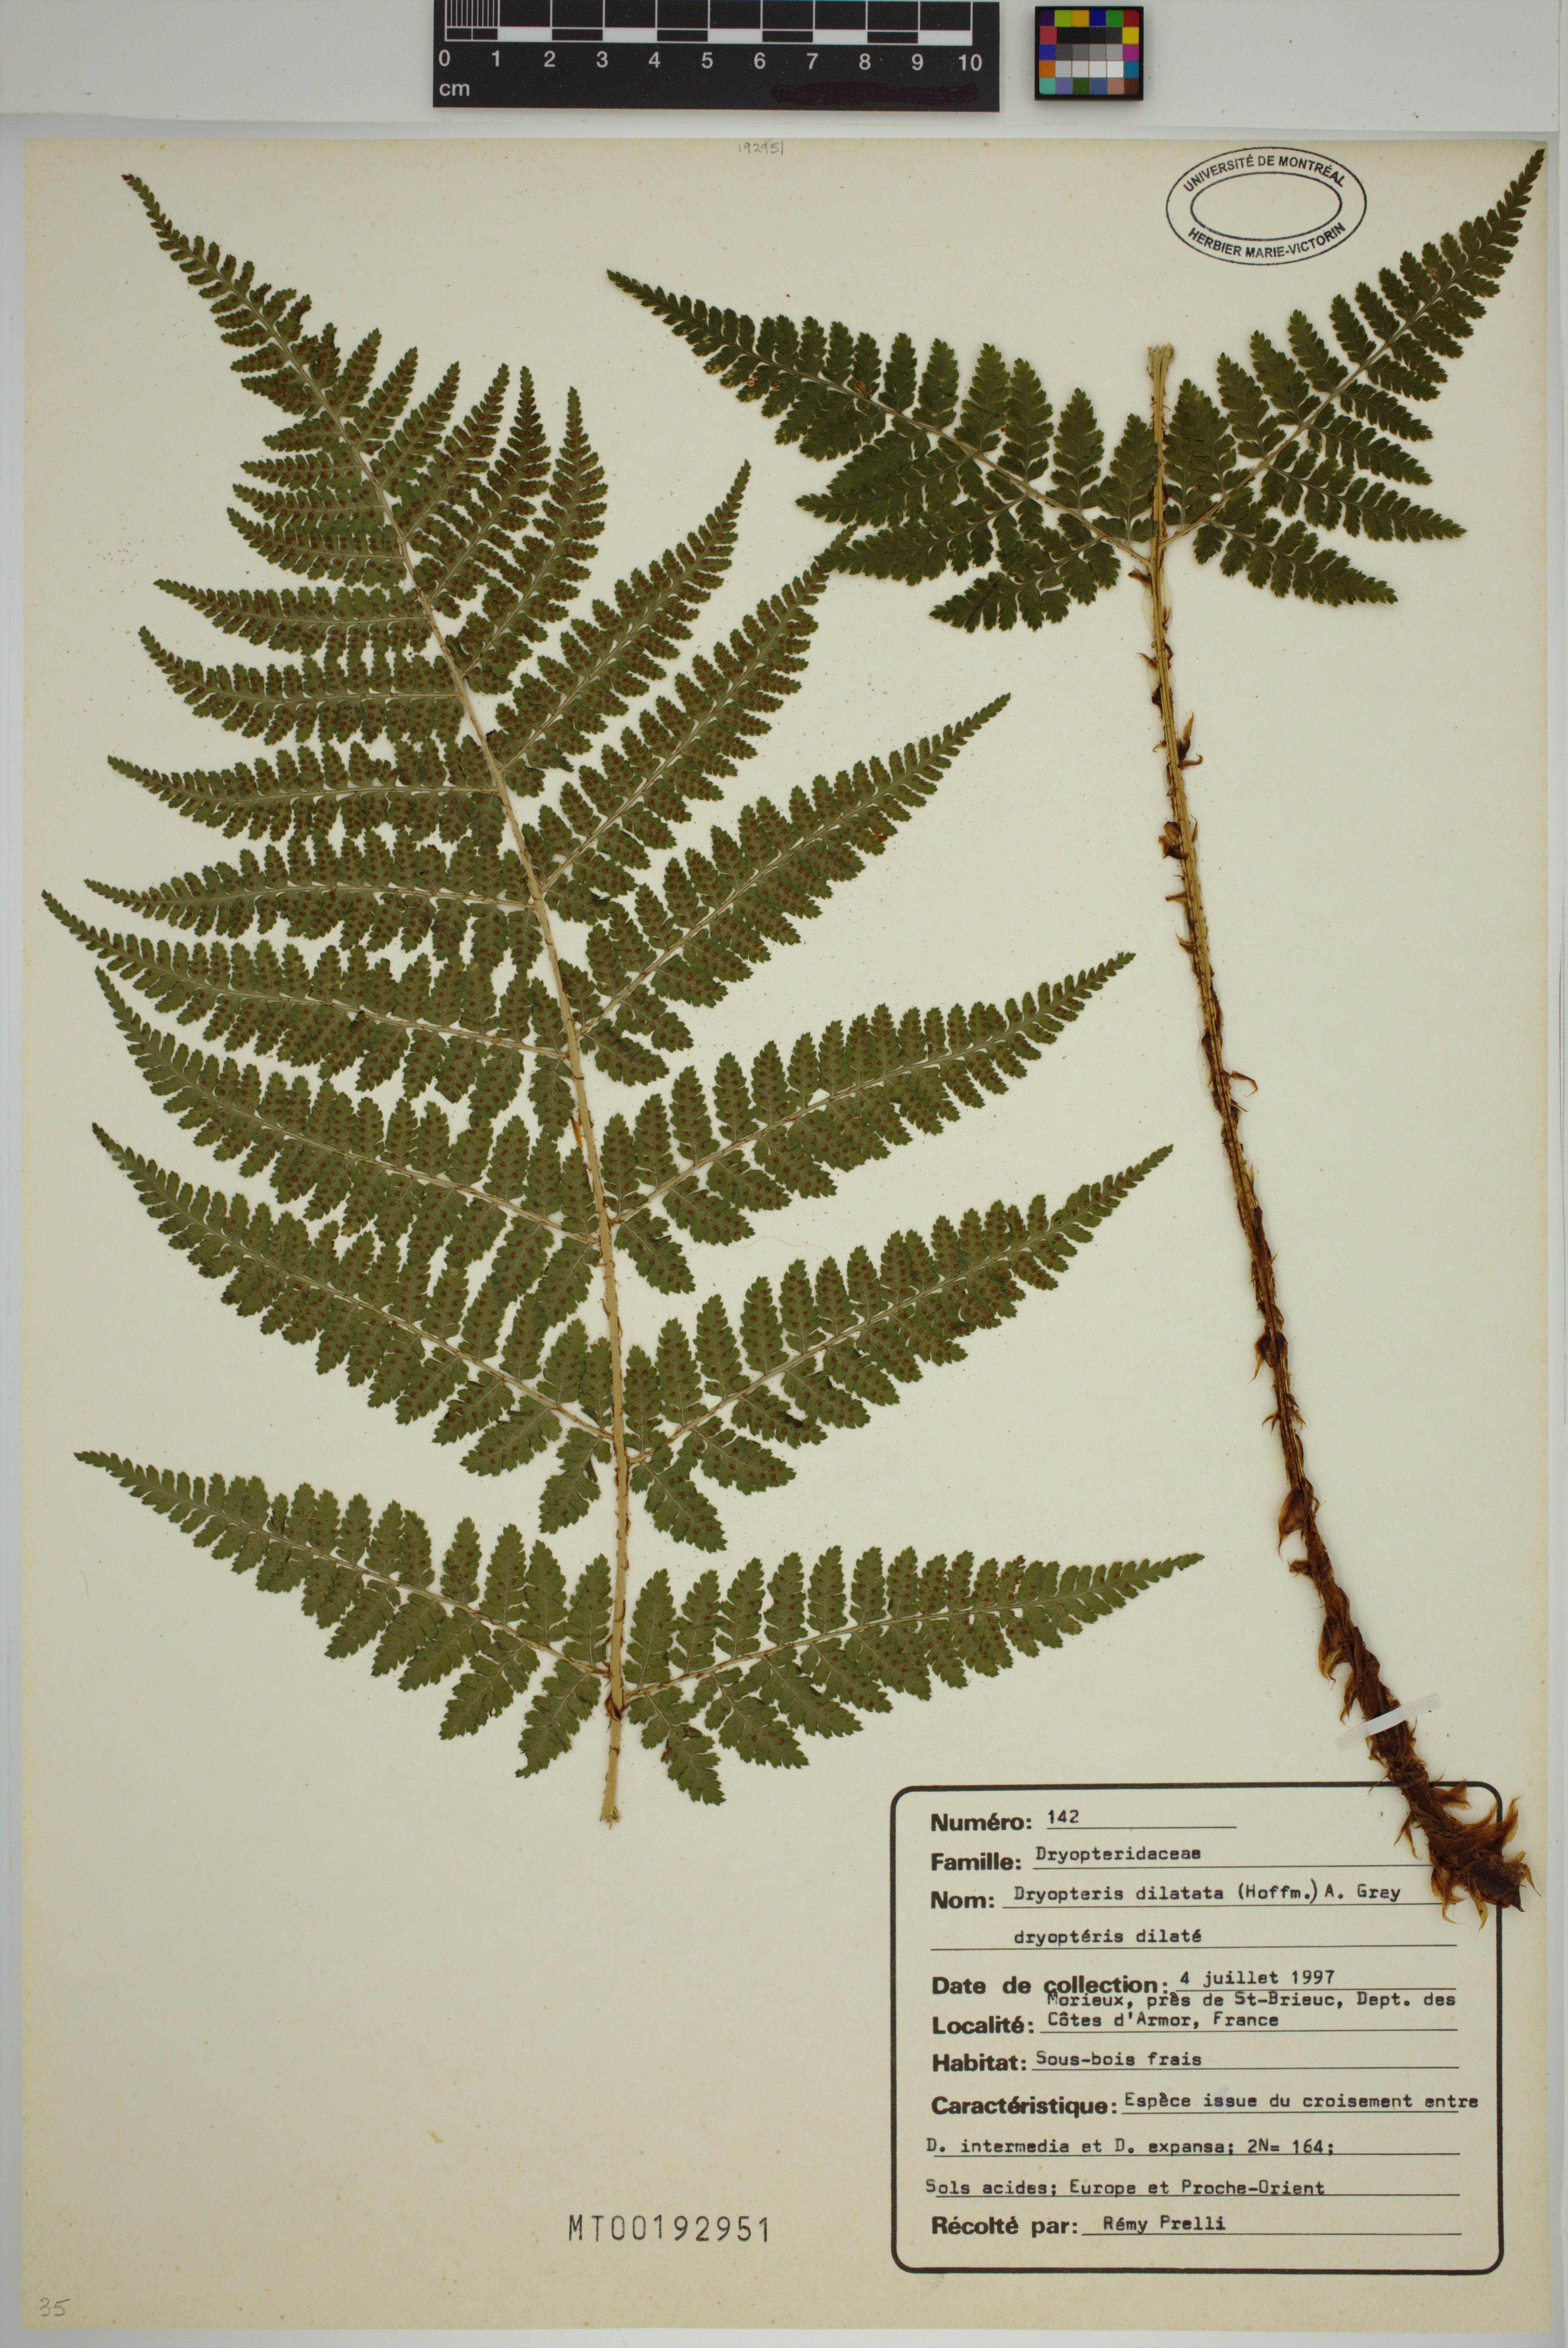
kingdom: Plantae
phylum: Tracheophyta
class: Polypodiopsida
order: Polypodiales
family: Dryopteridaceae
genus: Dryopteris
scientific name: Dryopteris dilatata
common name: Broad buckler-fern
